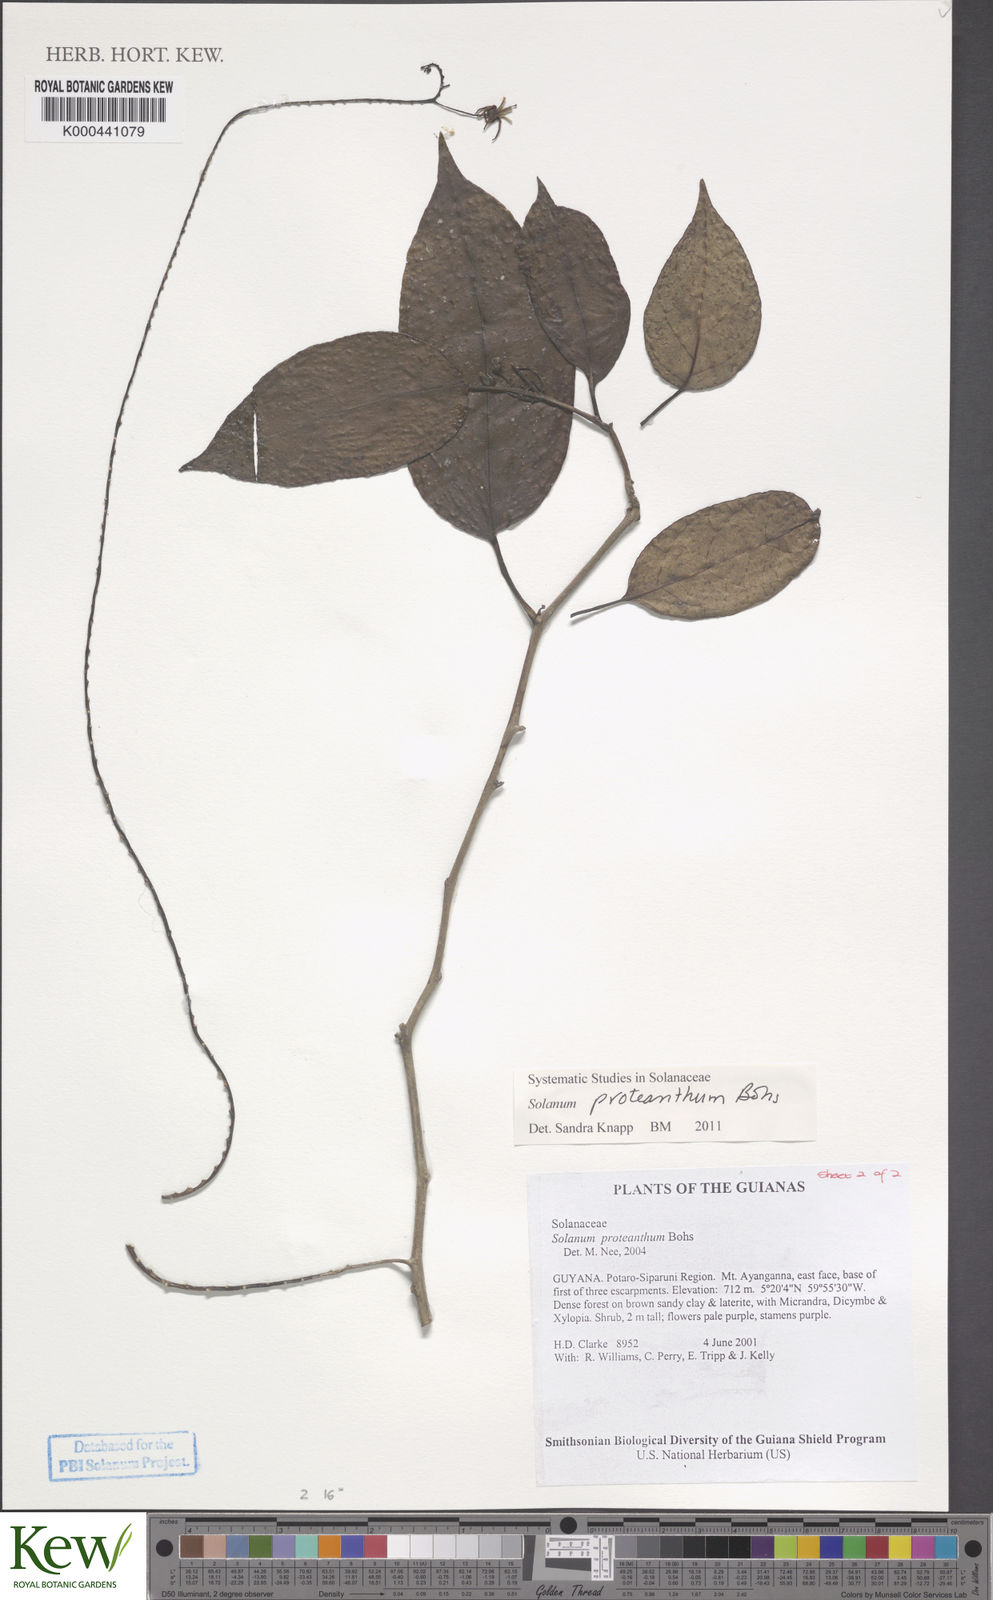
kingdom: Plantae
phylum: Tracheophyta
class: Magnoliopsida
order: Solanales
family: Solanaceae
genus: Solanum
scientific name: Solanum proteanthum
